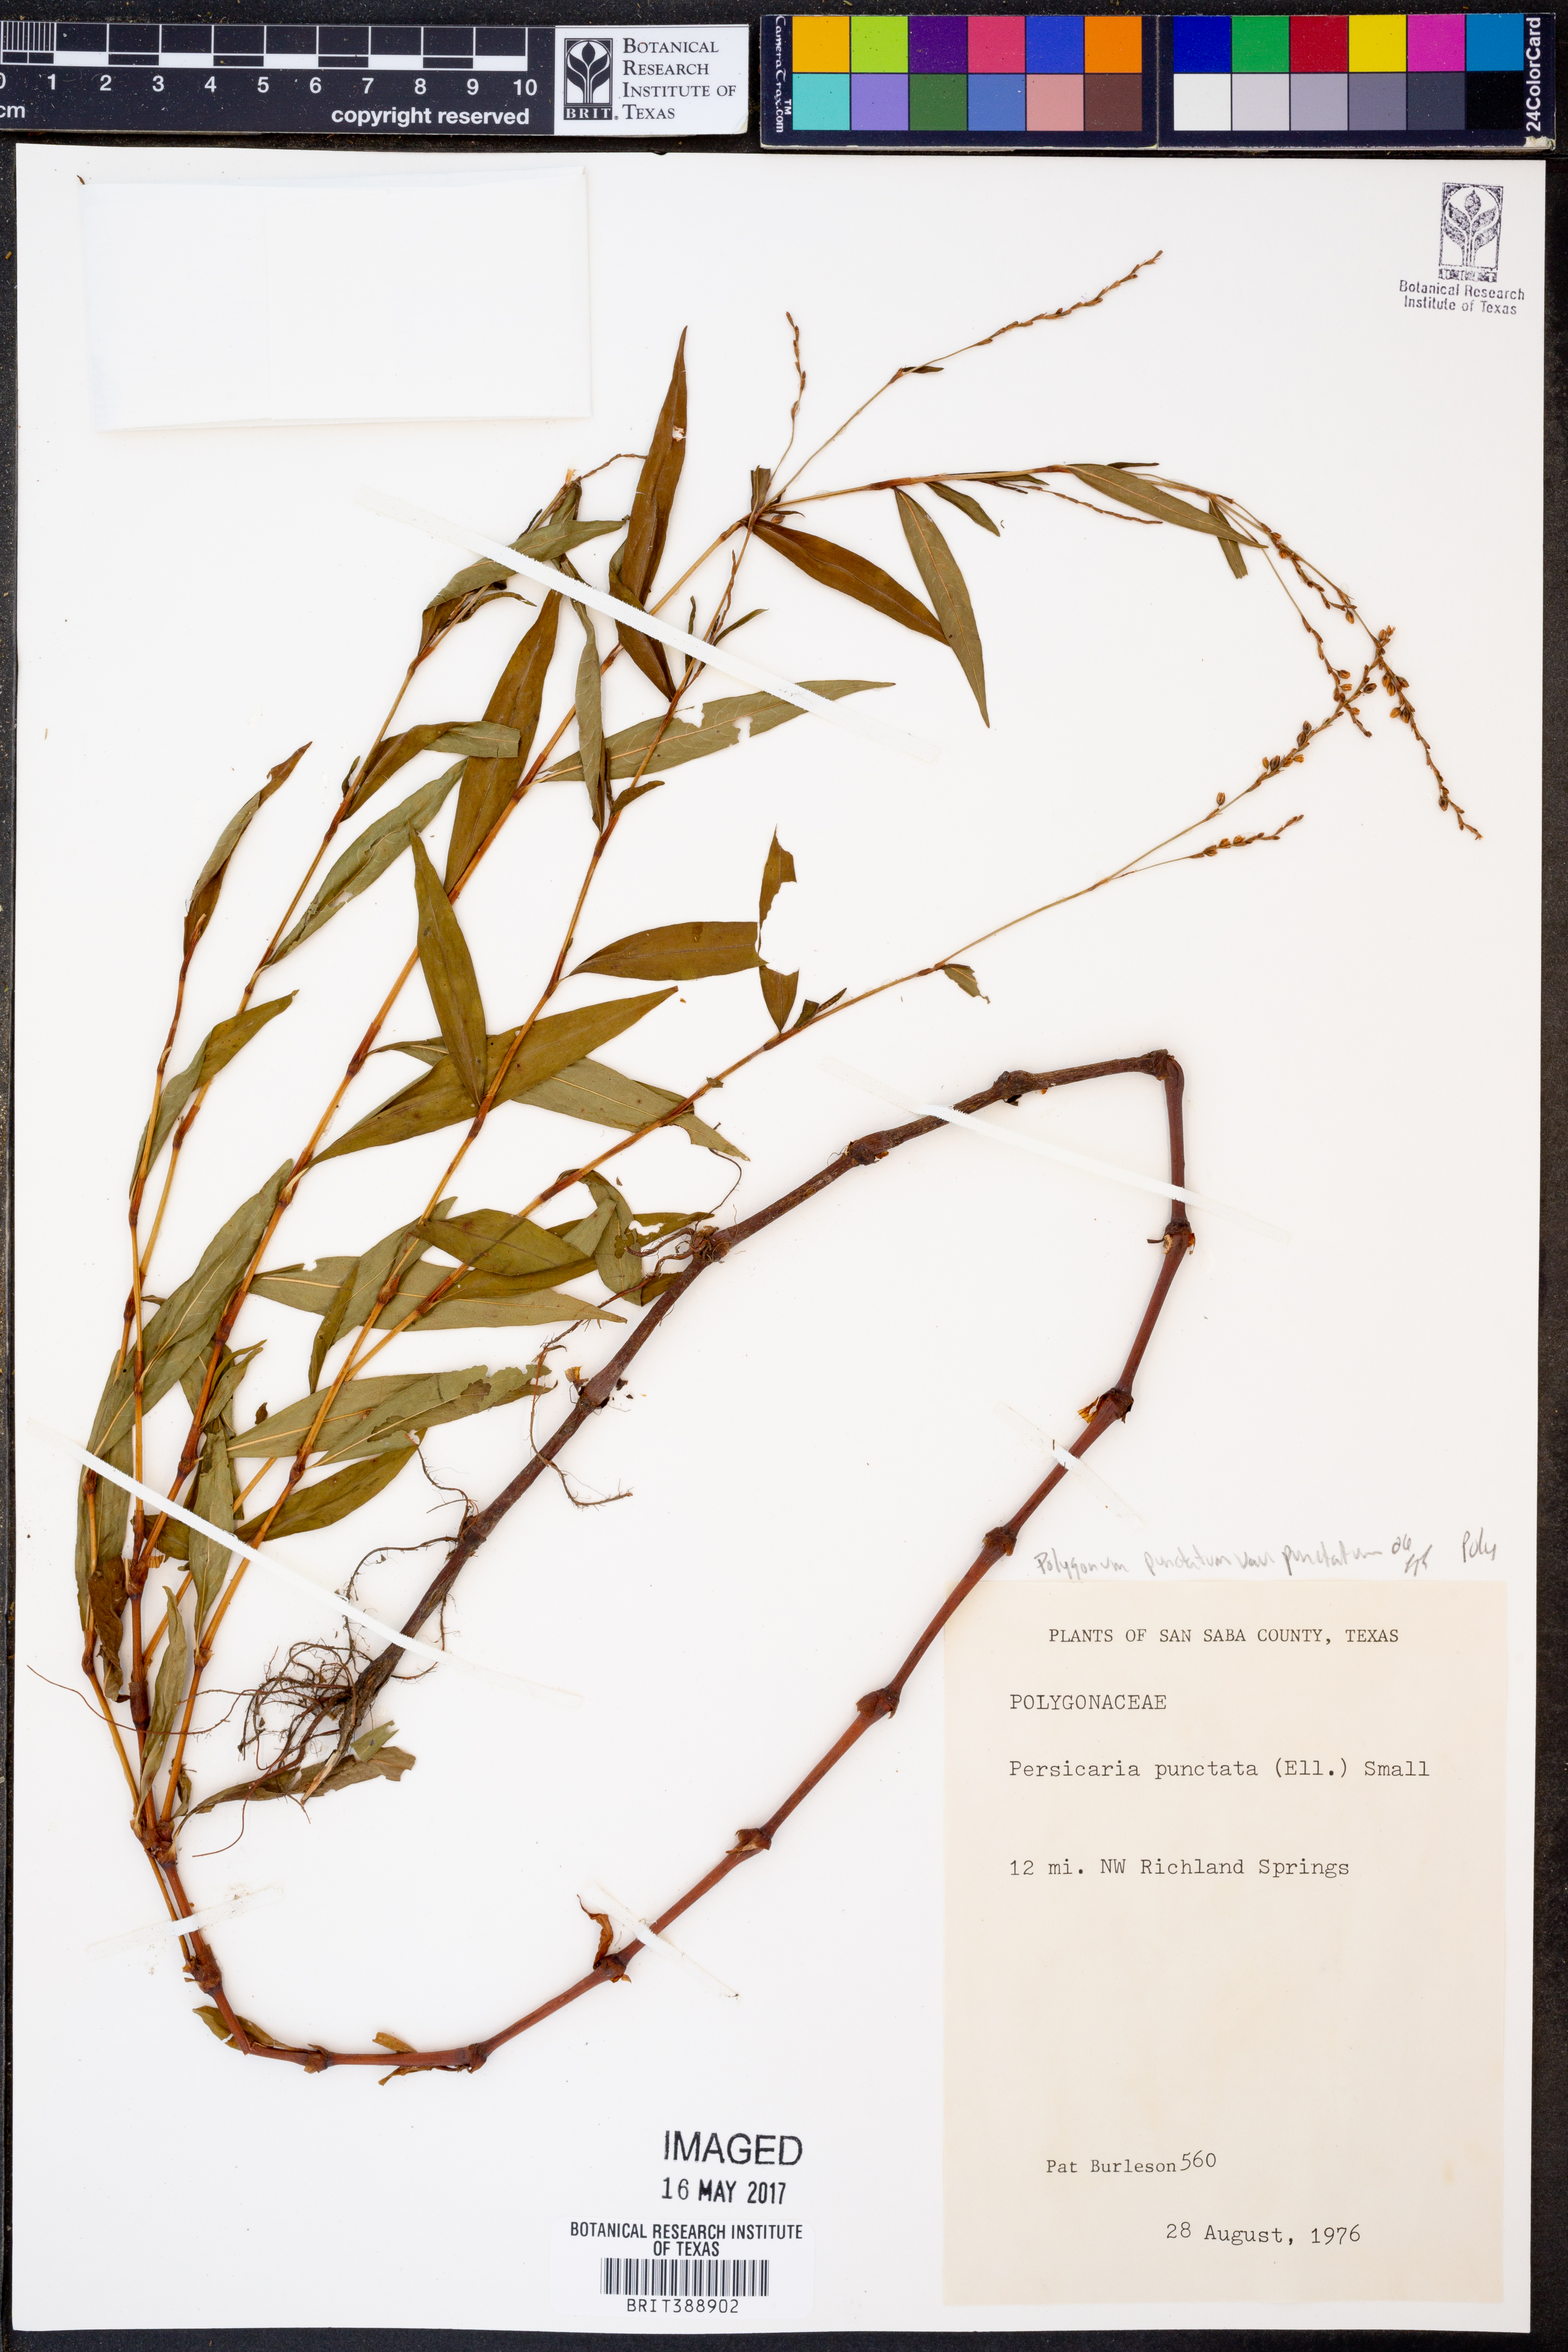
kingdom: Plantae
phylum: Tracheophyta
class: Magnoliopsida
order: Caryophyllales
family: Polygonaceae
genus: Persicaria
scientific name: Persicaria punctata
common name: Dotted smartweed
